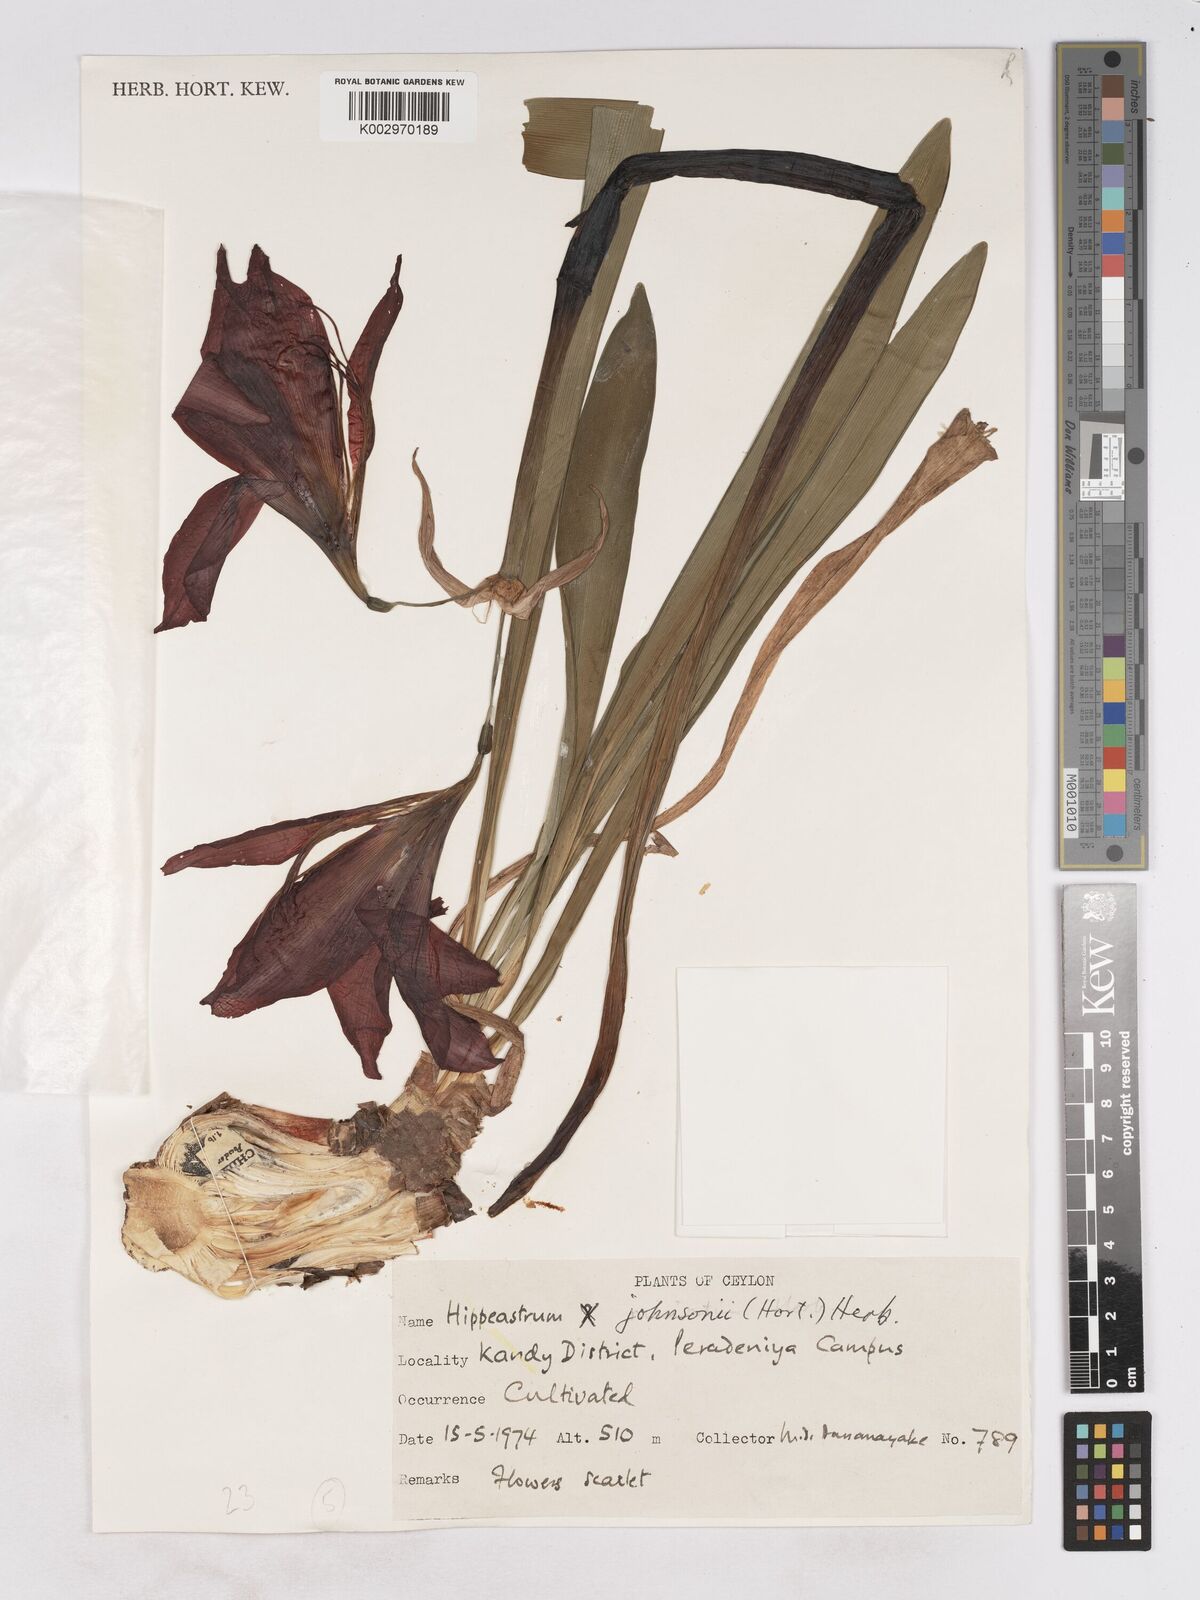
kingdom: Plantae
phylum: Tracheophyta
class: Liliopsida
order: Asparagales
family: Amaryllidaceae
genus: Hippeastrum
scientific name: Hippeastrum johnsonii
